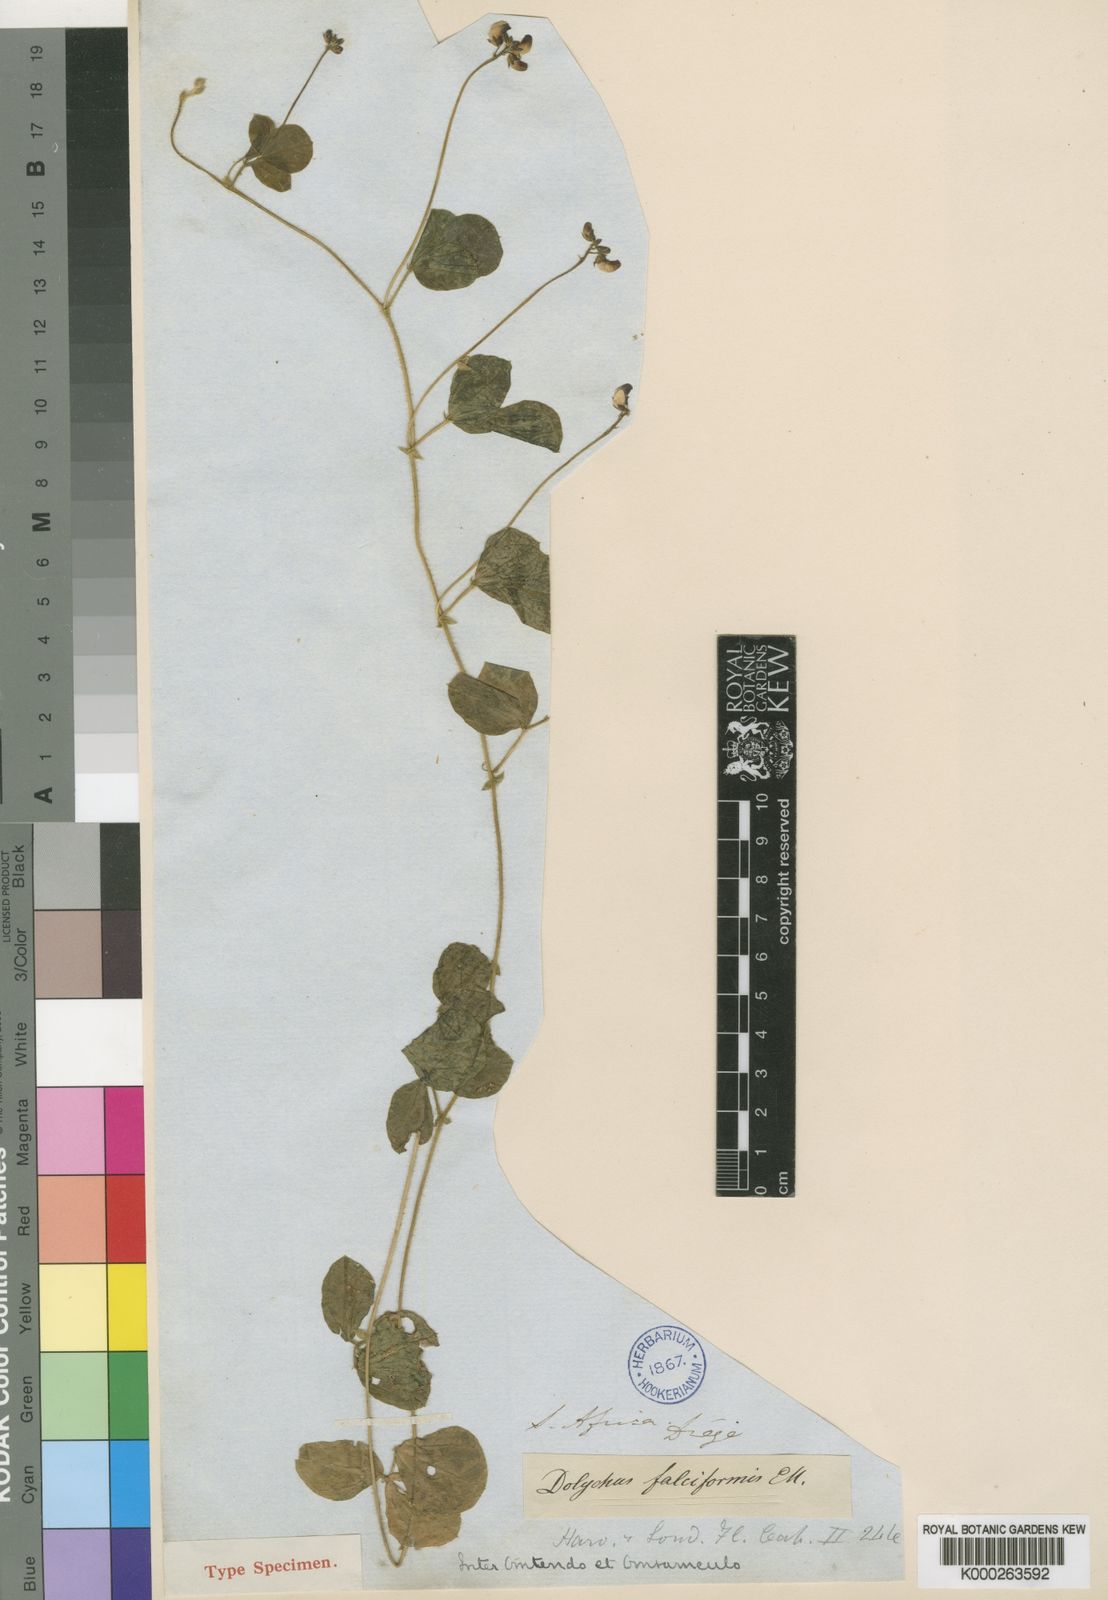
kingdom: Plantae
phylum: Tracheophyta
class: Magnoliopsida
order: Fabales
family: Fabaceae
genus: Dolichos
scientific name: Dolichos falciformis
